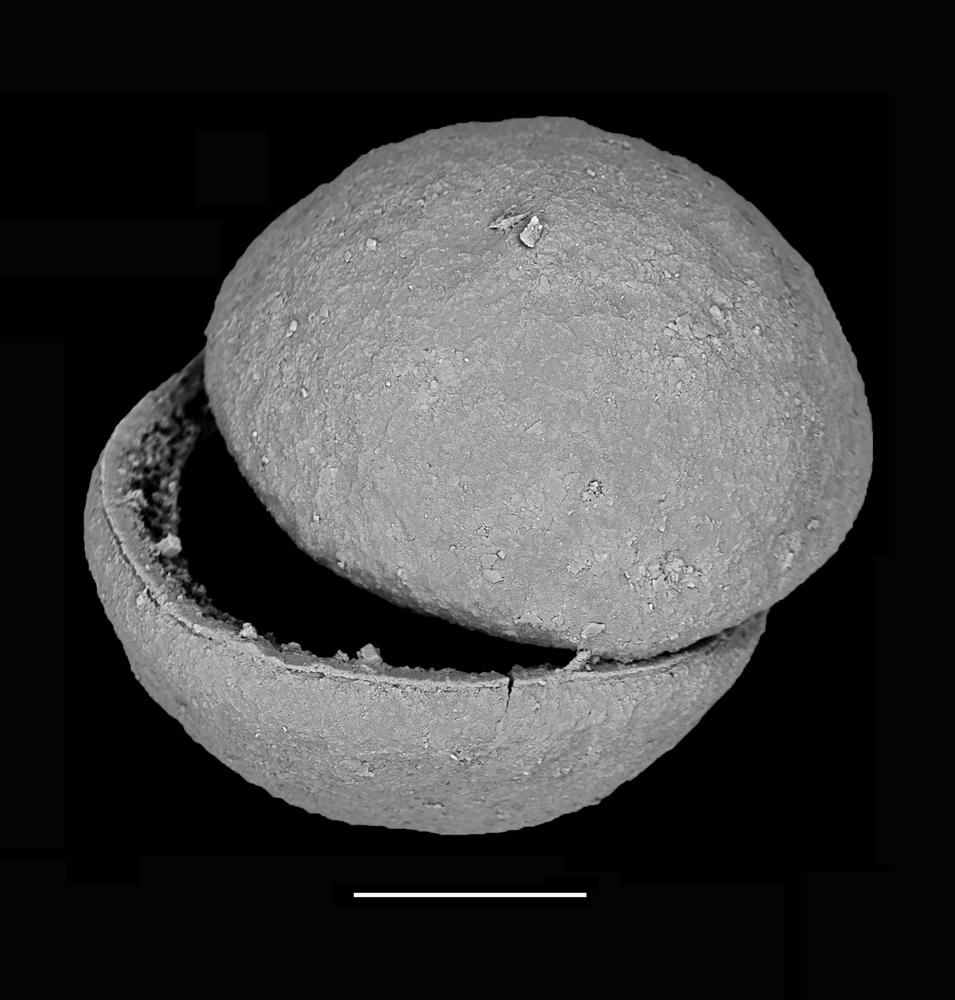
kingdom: Animalia
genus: Vikisphaera
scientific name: Vikisphaera
